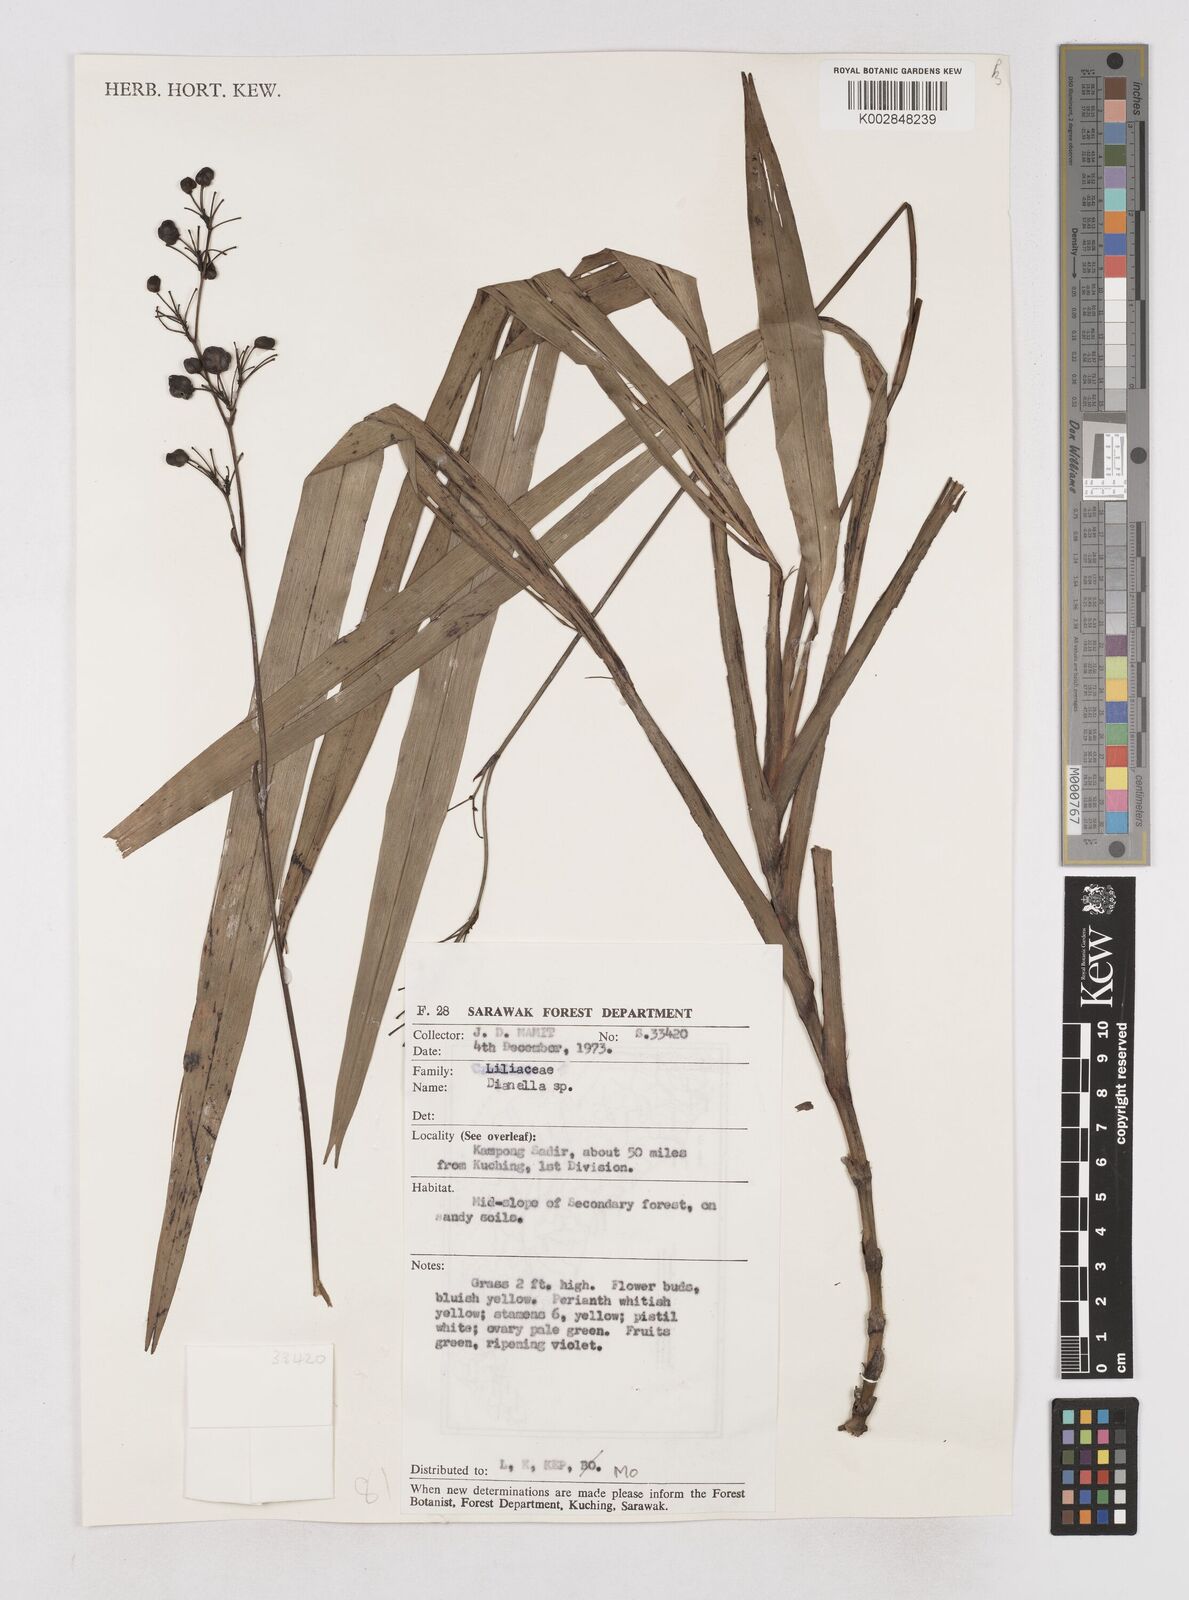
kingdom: Plantae
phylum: Tracheophyta
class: Liliopsida
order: Asparagales
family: Asphodelaceae
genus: Dianella
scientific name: Dianella
